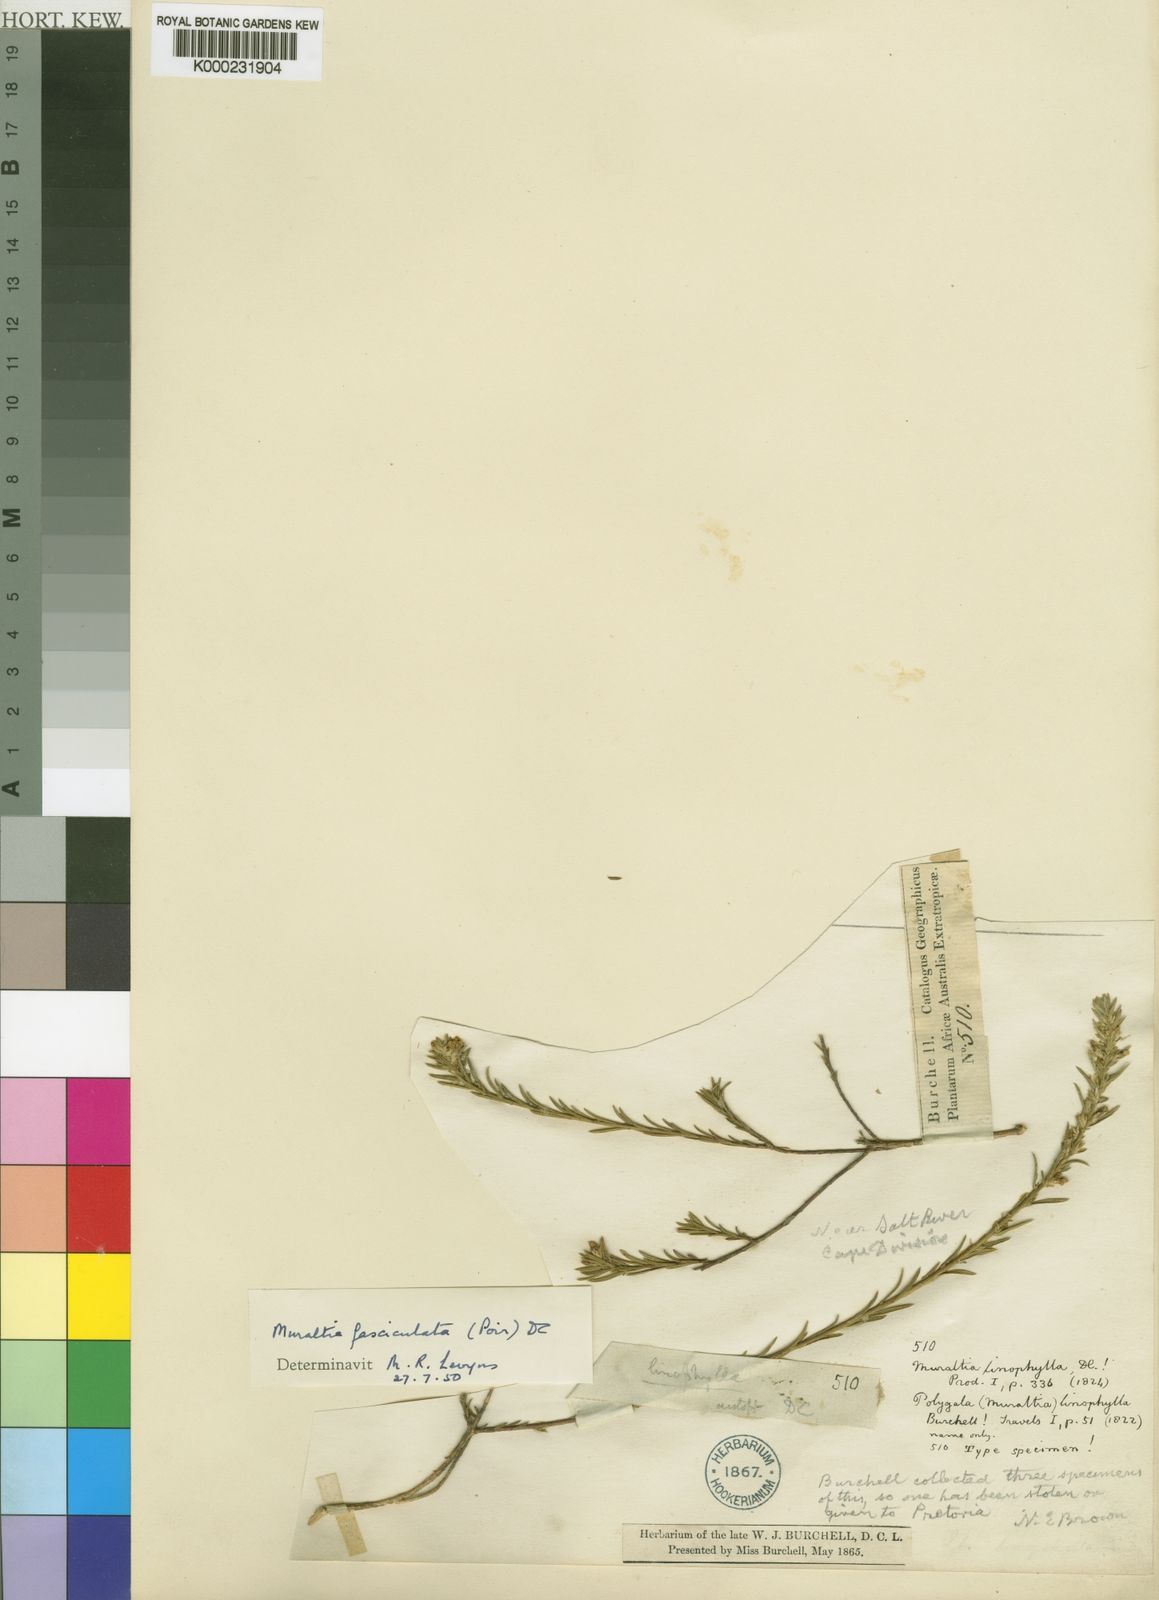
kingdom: Plantae
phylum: Tracheophyta
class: Magnoliopsida
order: Fabales
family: Polygalaceae
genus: Muraltia
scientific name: Muraltia ericoides
